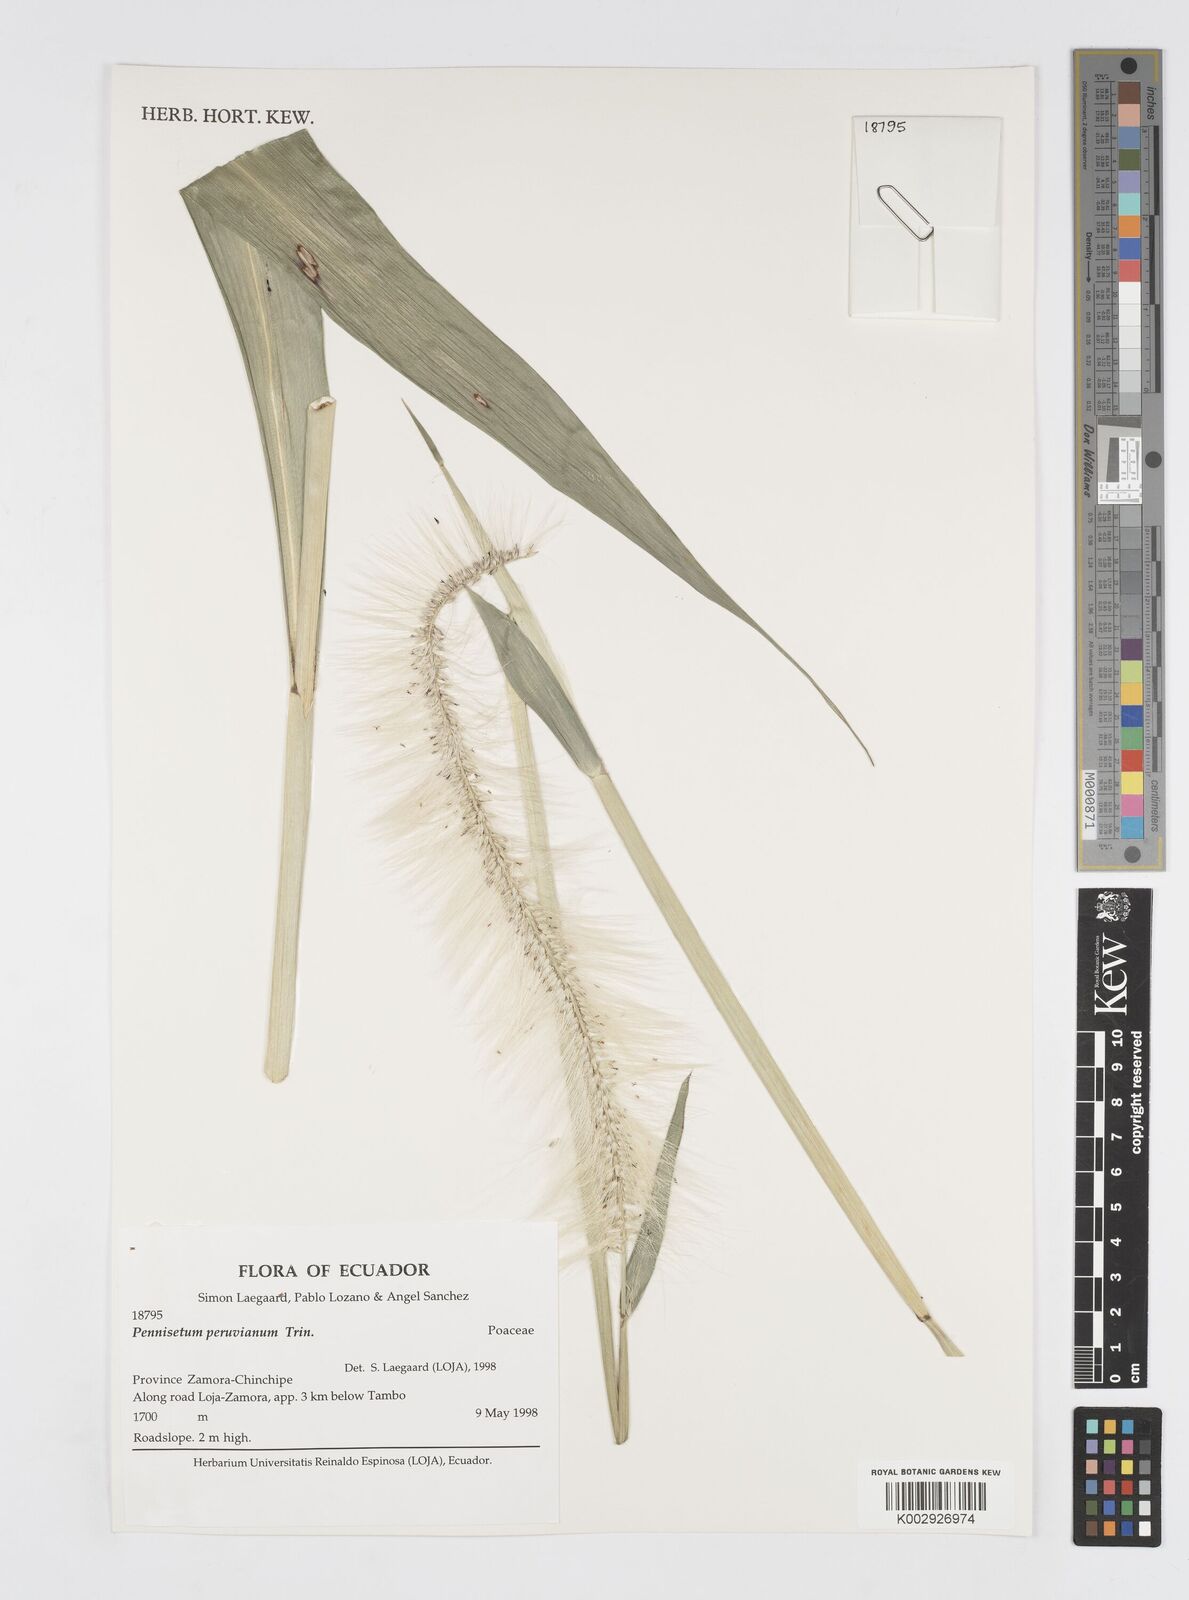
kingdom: Plantae
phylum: Tracheophyta
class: Liliopsida
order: Poales
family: Poaceae
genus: Cenchrus
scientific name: Cenchrus peruvianus
